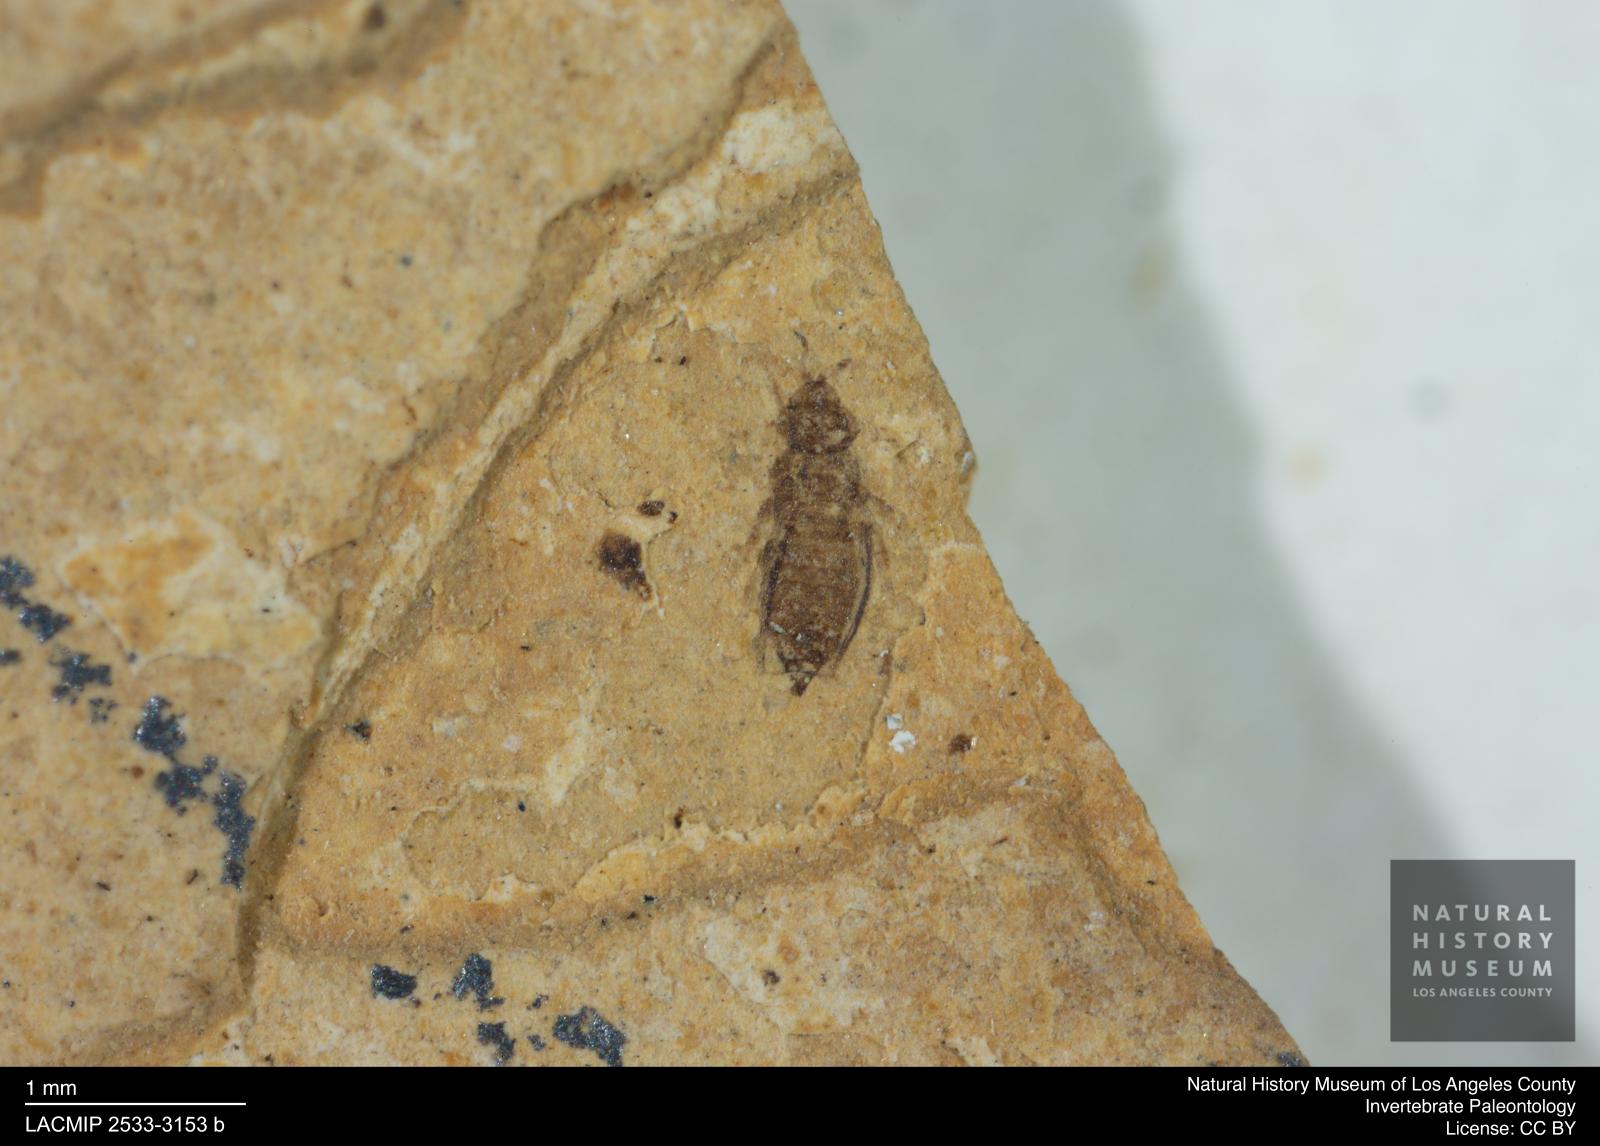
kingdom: Animalia
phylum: Arthropoda
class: Insecta
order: Thysanoptera
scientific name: Thysanoptera
